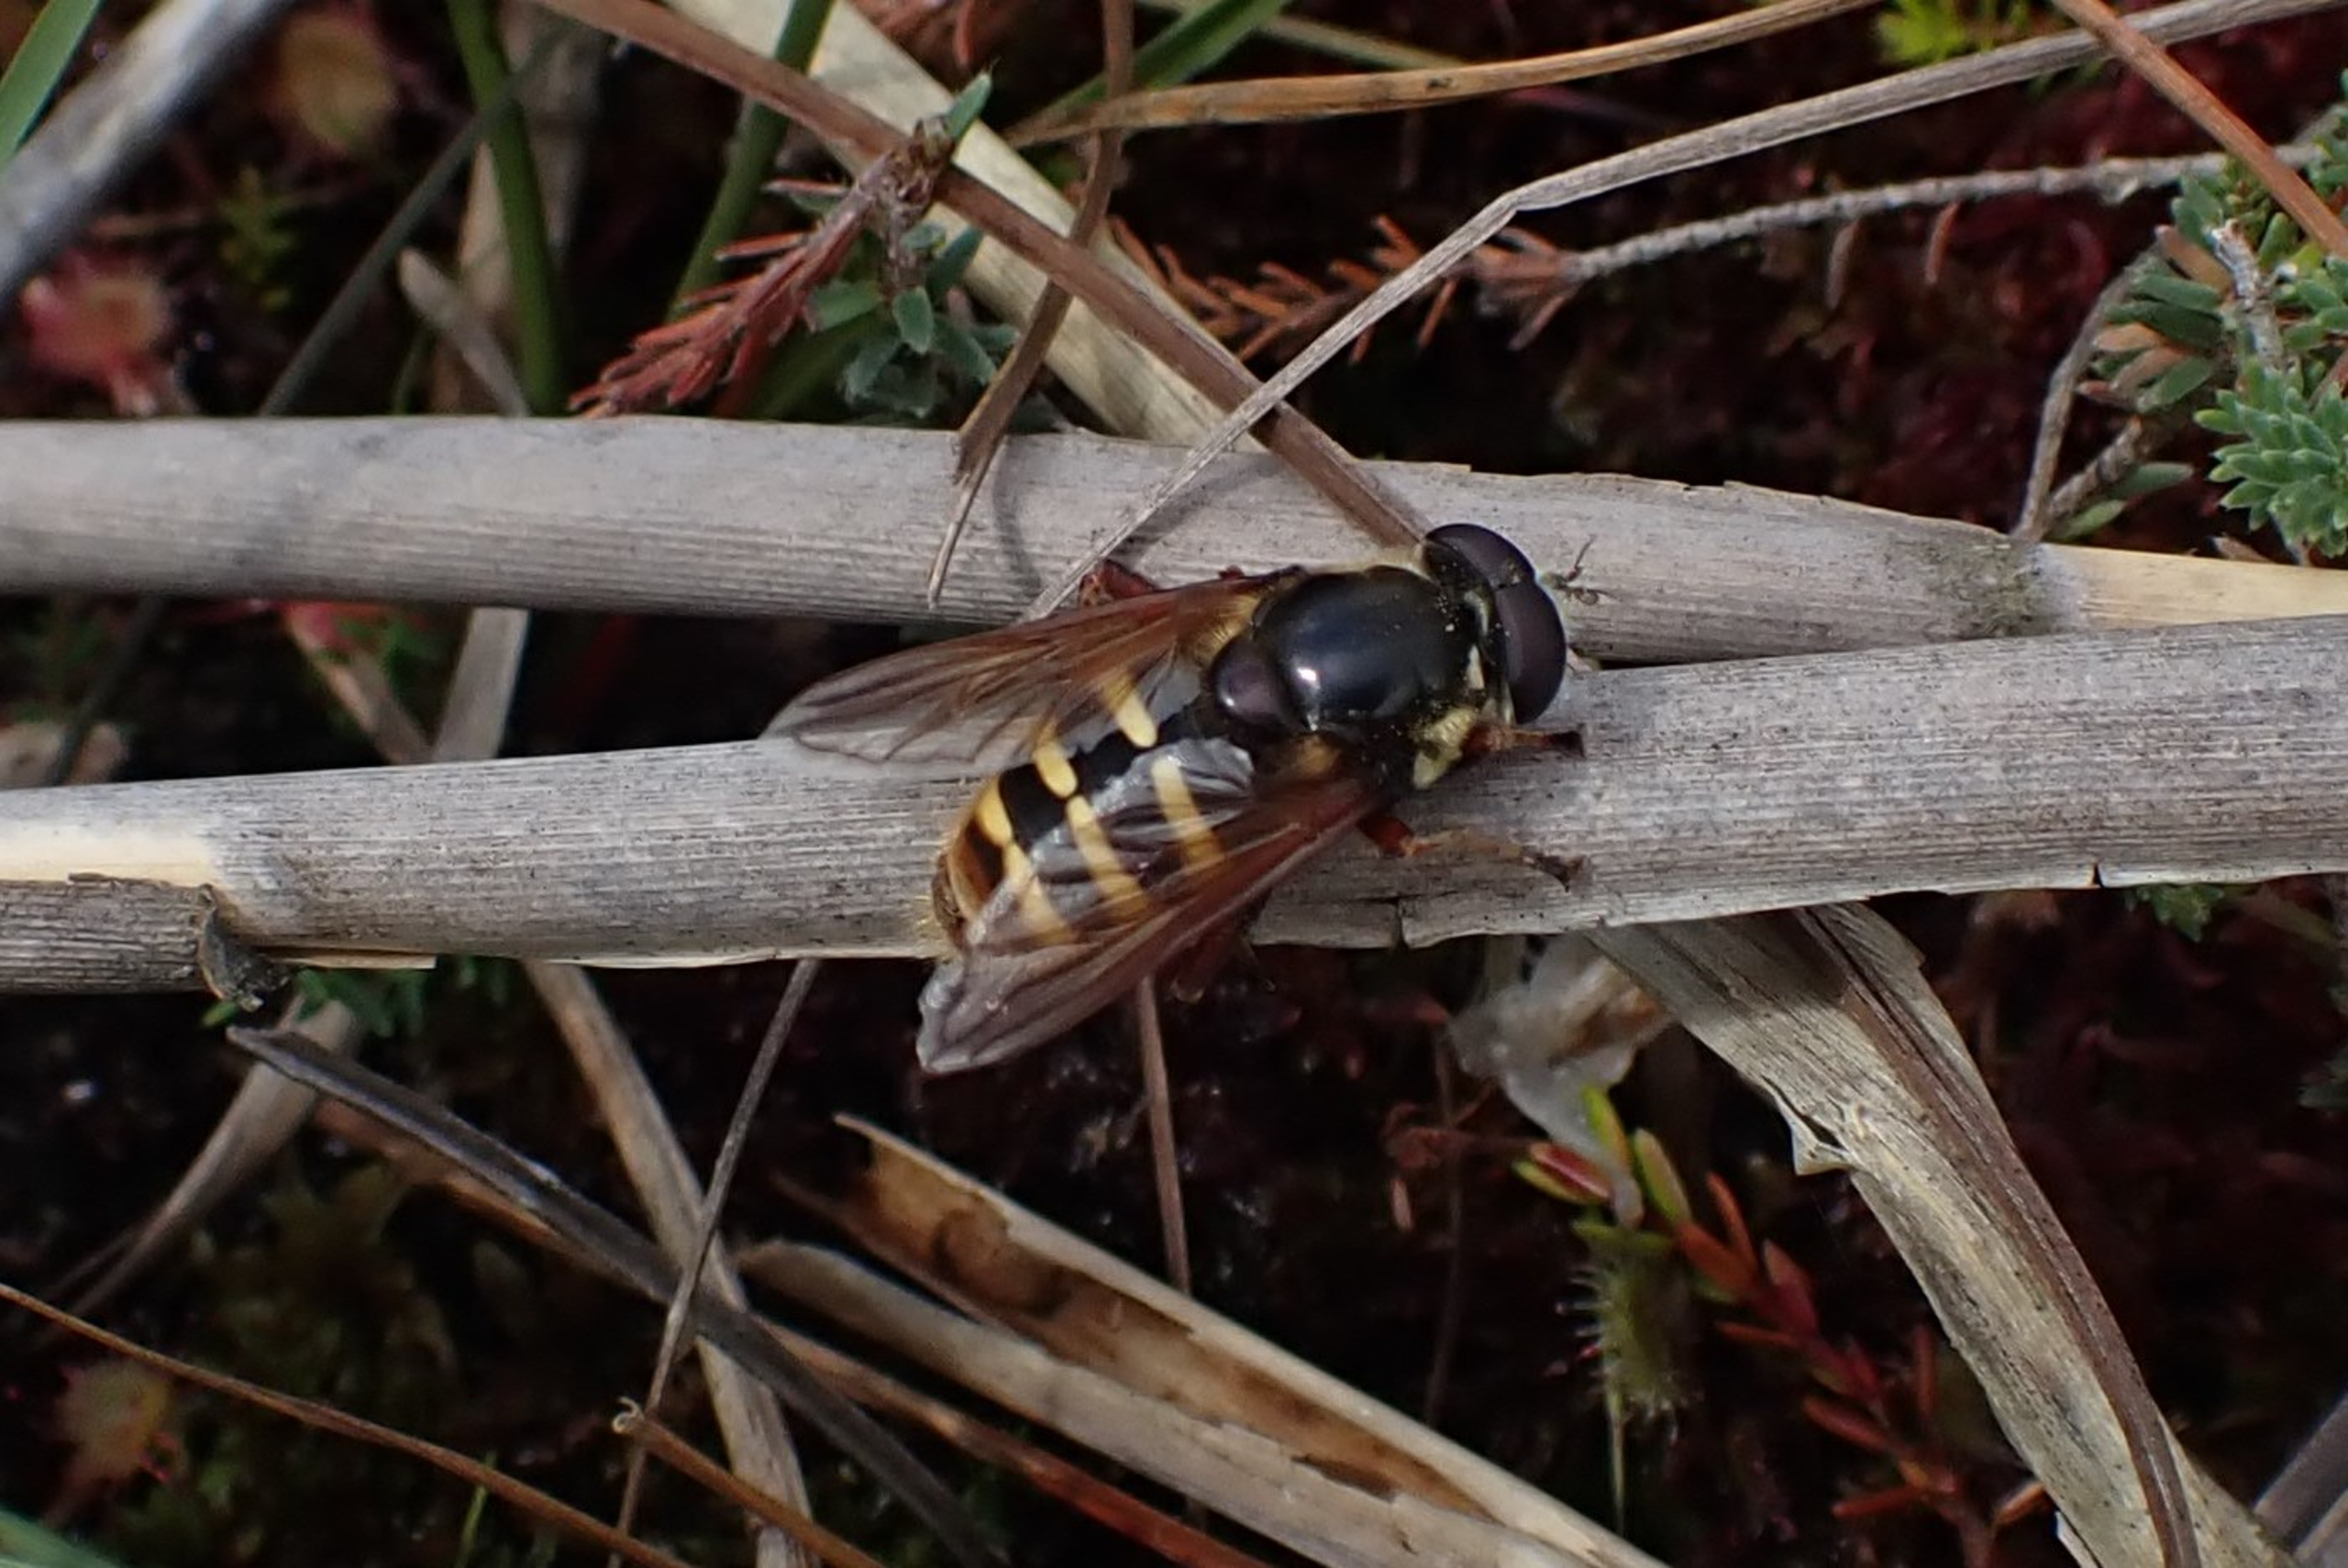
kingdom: Animalia
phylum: Arthropoda
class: Insecta
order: Diptera
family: Syrphidae
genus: Sericomyia
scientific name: Sericomyia silentis
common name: Tørve-silkesvirreflue
